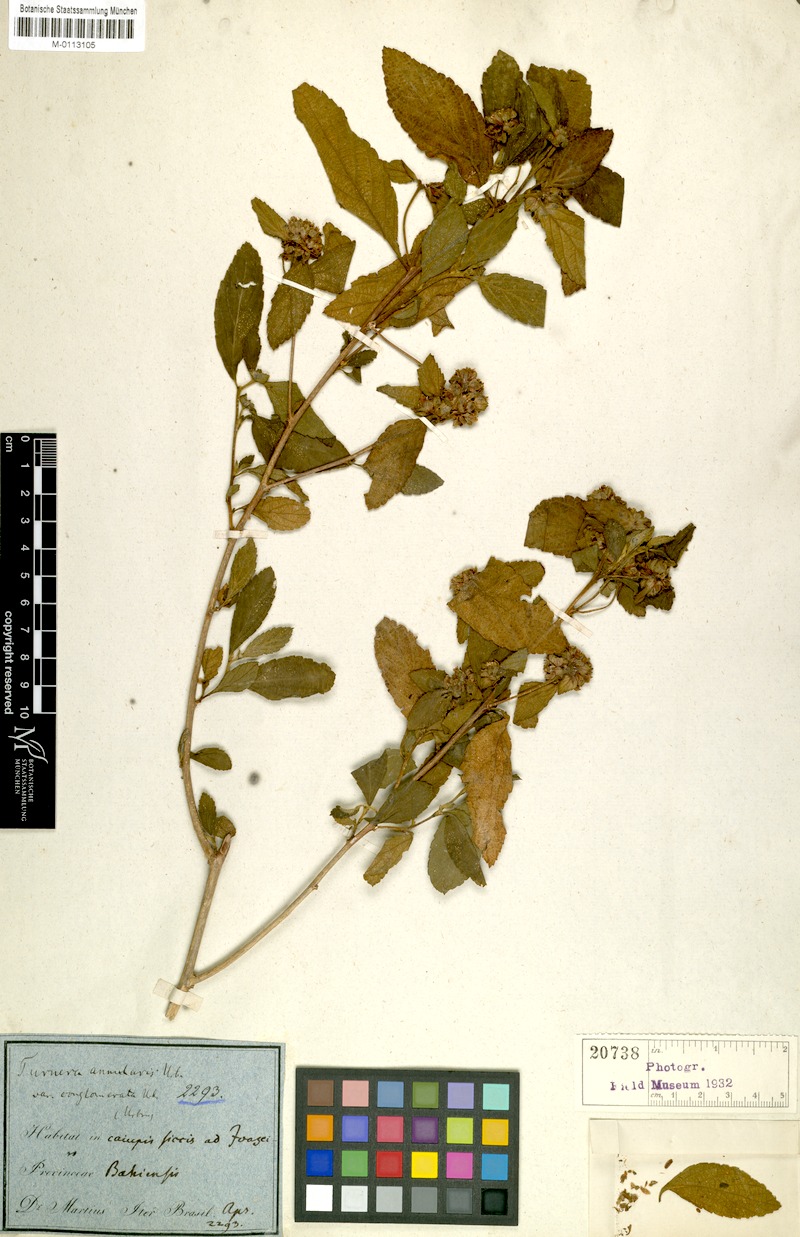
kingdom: Plantae
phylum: Tracheophyta
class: Magnoliopsida
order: Malpighiales
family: Turneraceae
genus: Oxossia
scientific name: Oxossia annularis
